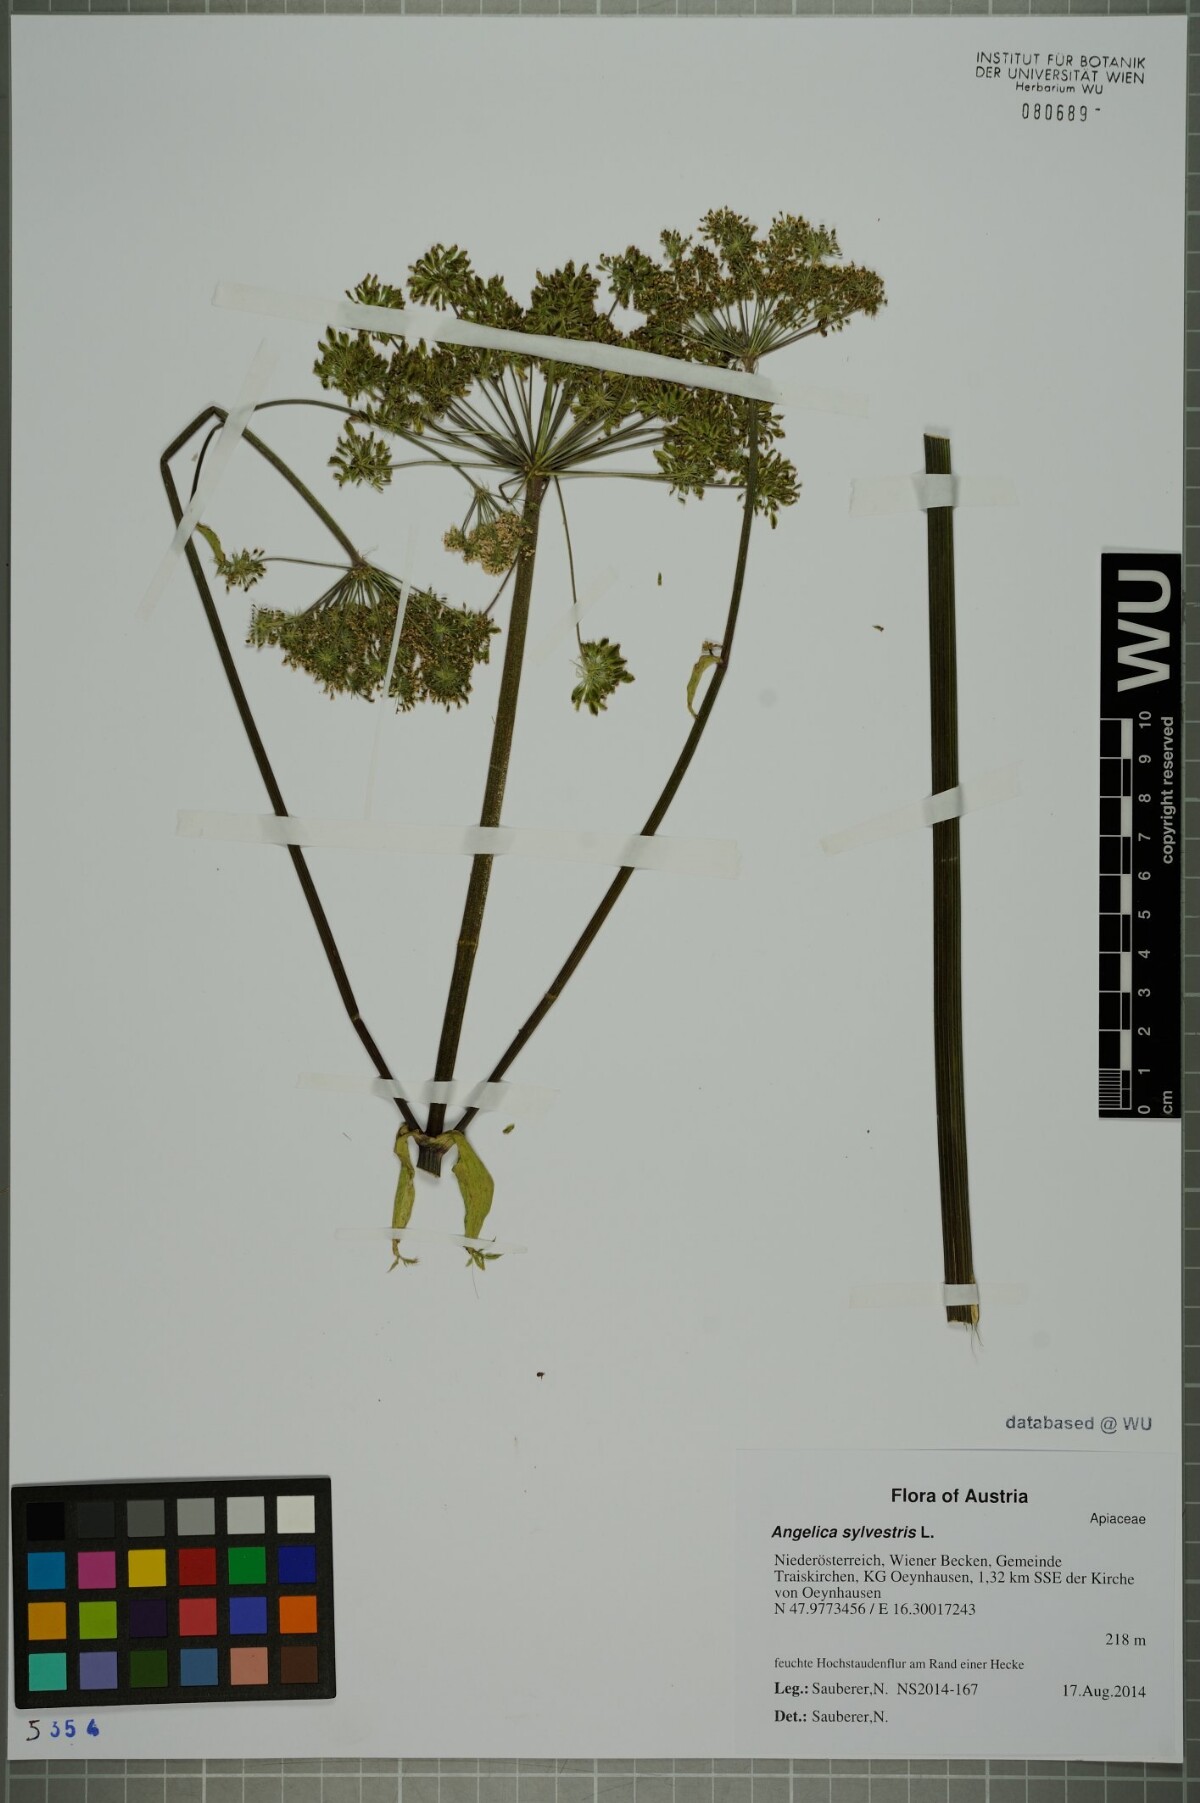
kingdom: Plantae
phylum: Tracheophyta
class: Magnoliopsida
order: Apiales
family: Apiaceae
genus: Angelica
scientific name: Angelica sylvestris
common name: Wild angelica
